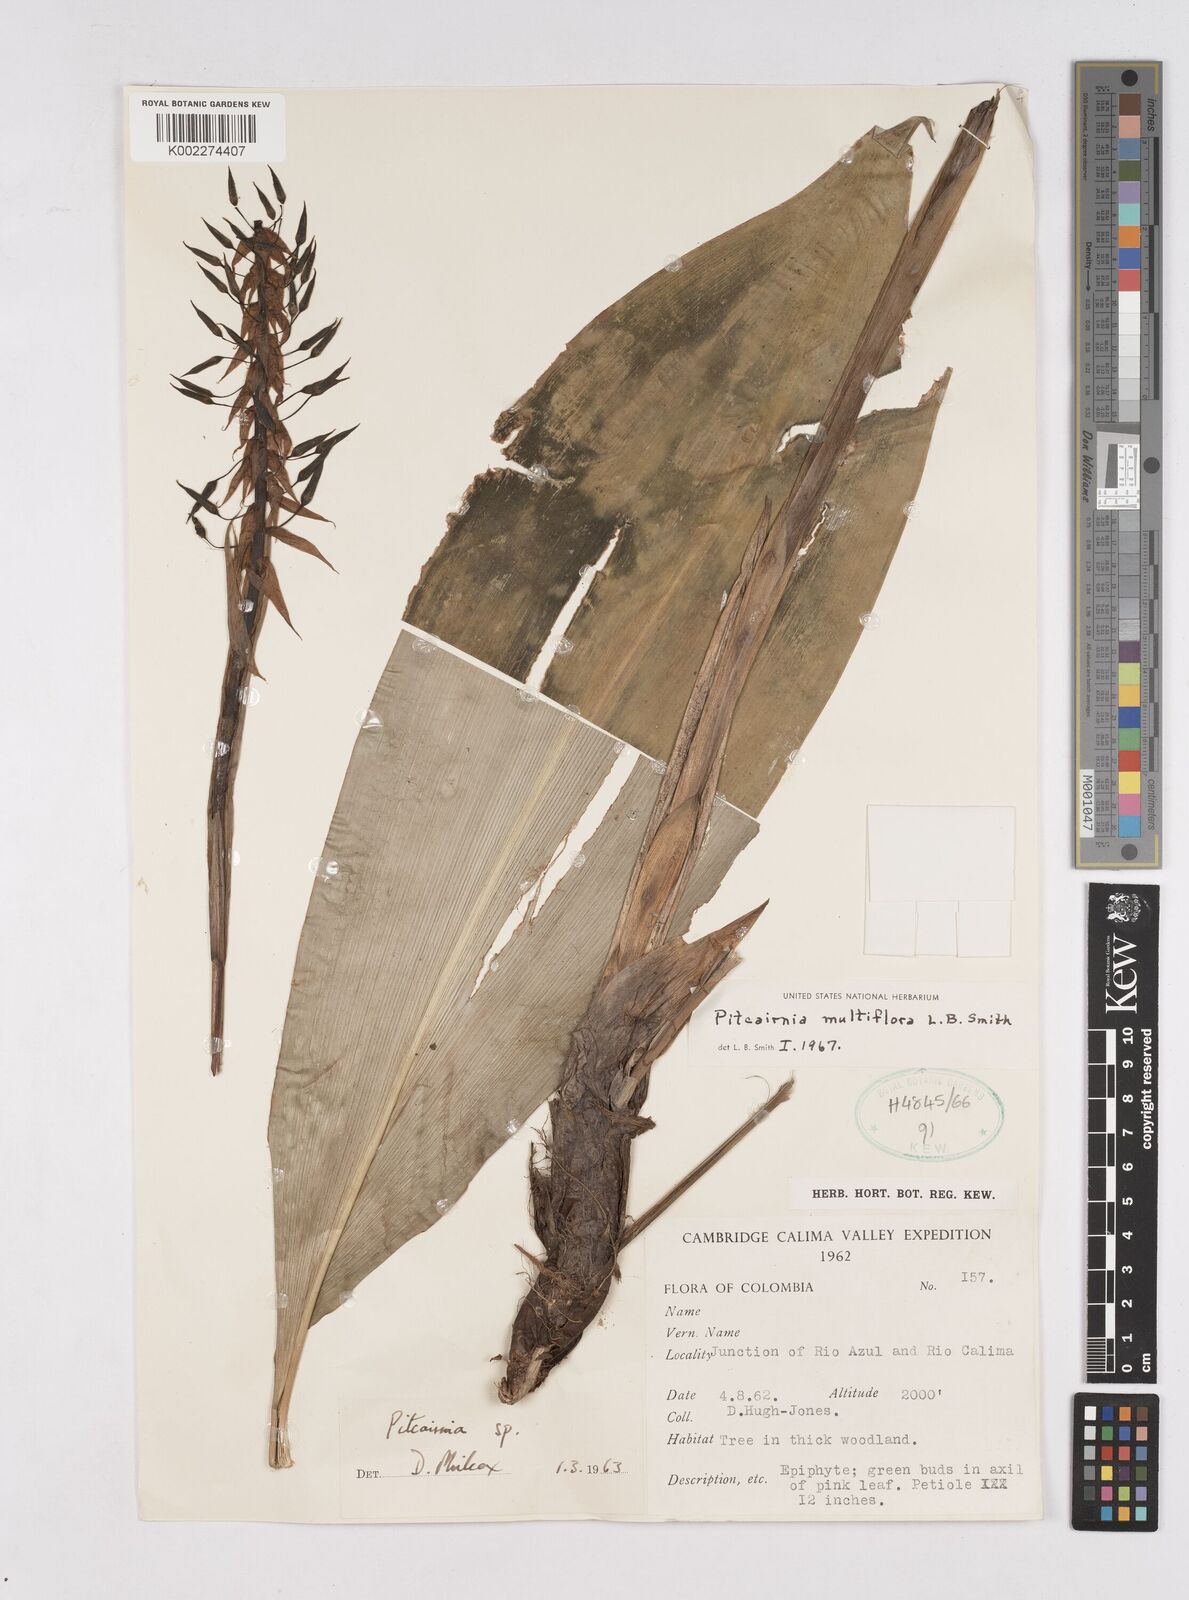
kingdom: Plantae
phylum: Tracheophyta
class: Liliopsida
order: Poales
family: Bromeliaceae
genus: Pitcairnia
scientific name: Pitcairnia multiflora
